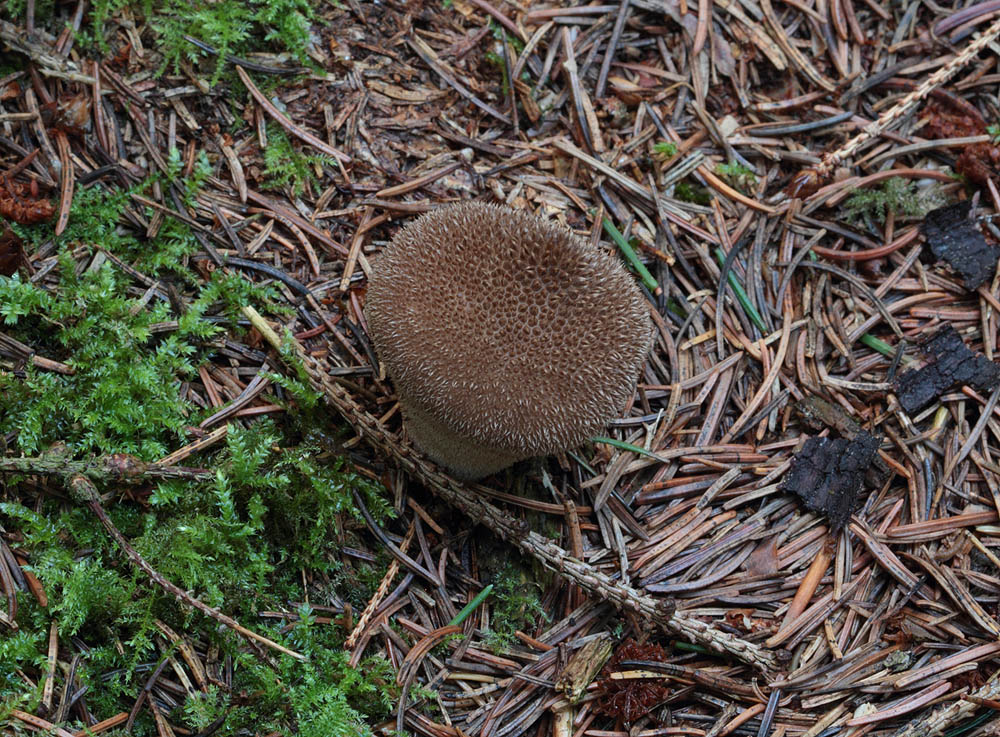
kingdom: Fungi
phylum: Basidiomycota
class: Agaricomycetes
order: Agaricales
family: Lycoperdaceae
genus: Lycoperdon
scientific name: Lycoperdon nigrescens
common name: sortagtig støvbold
